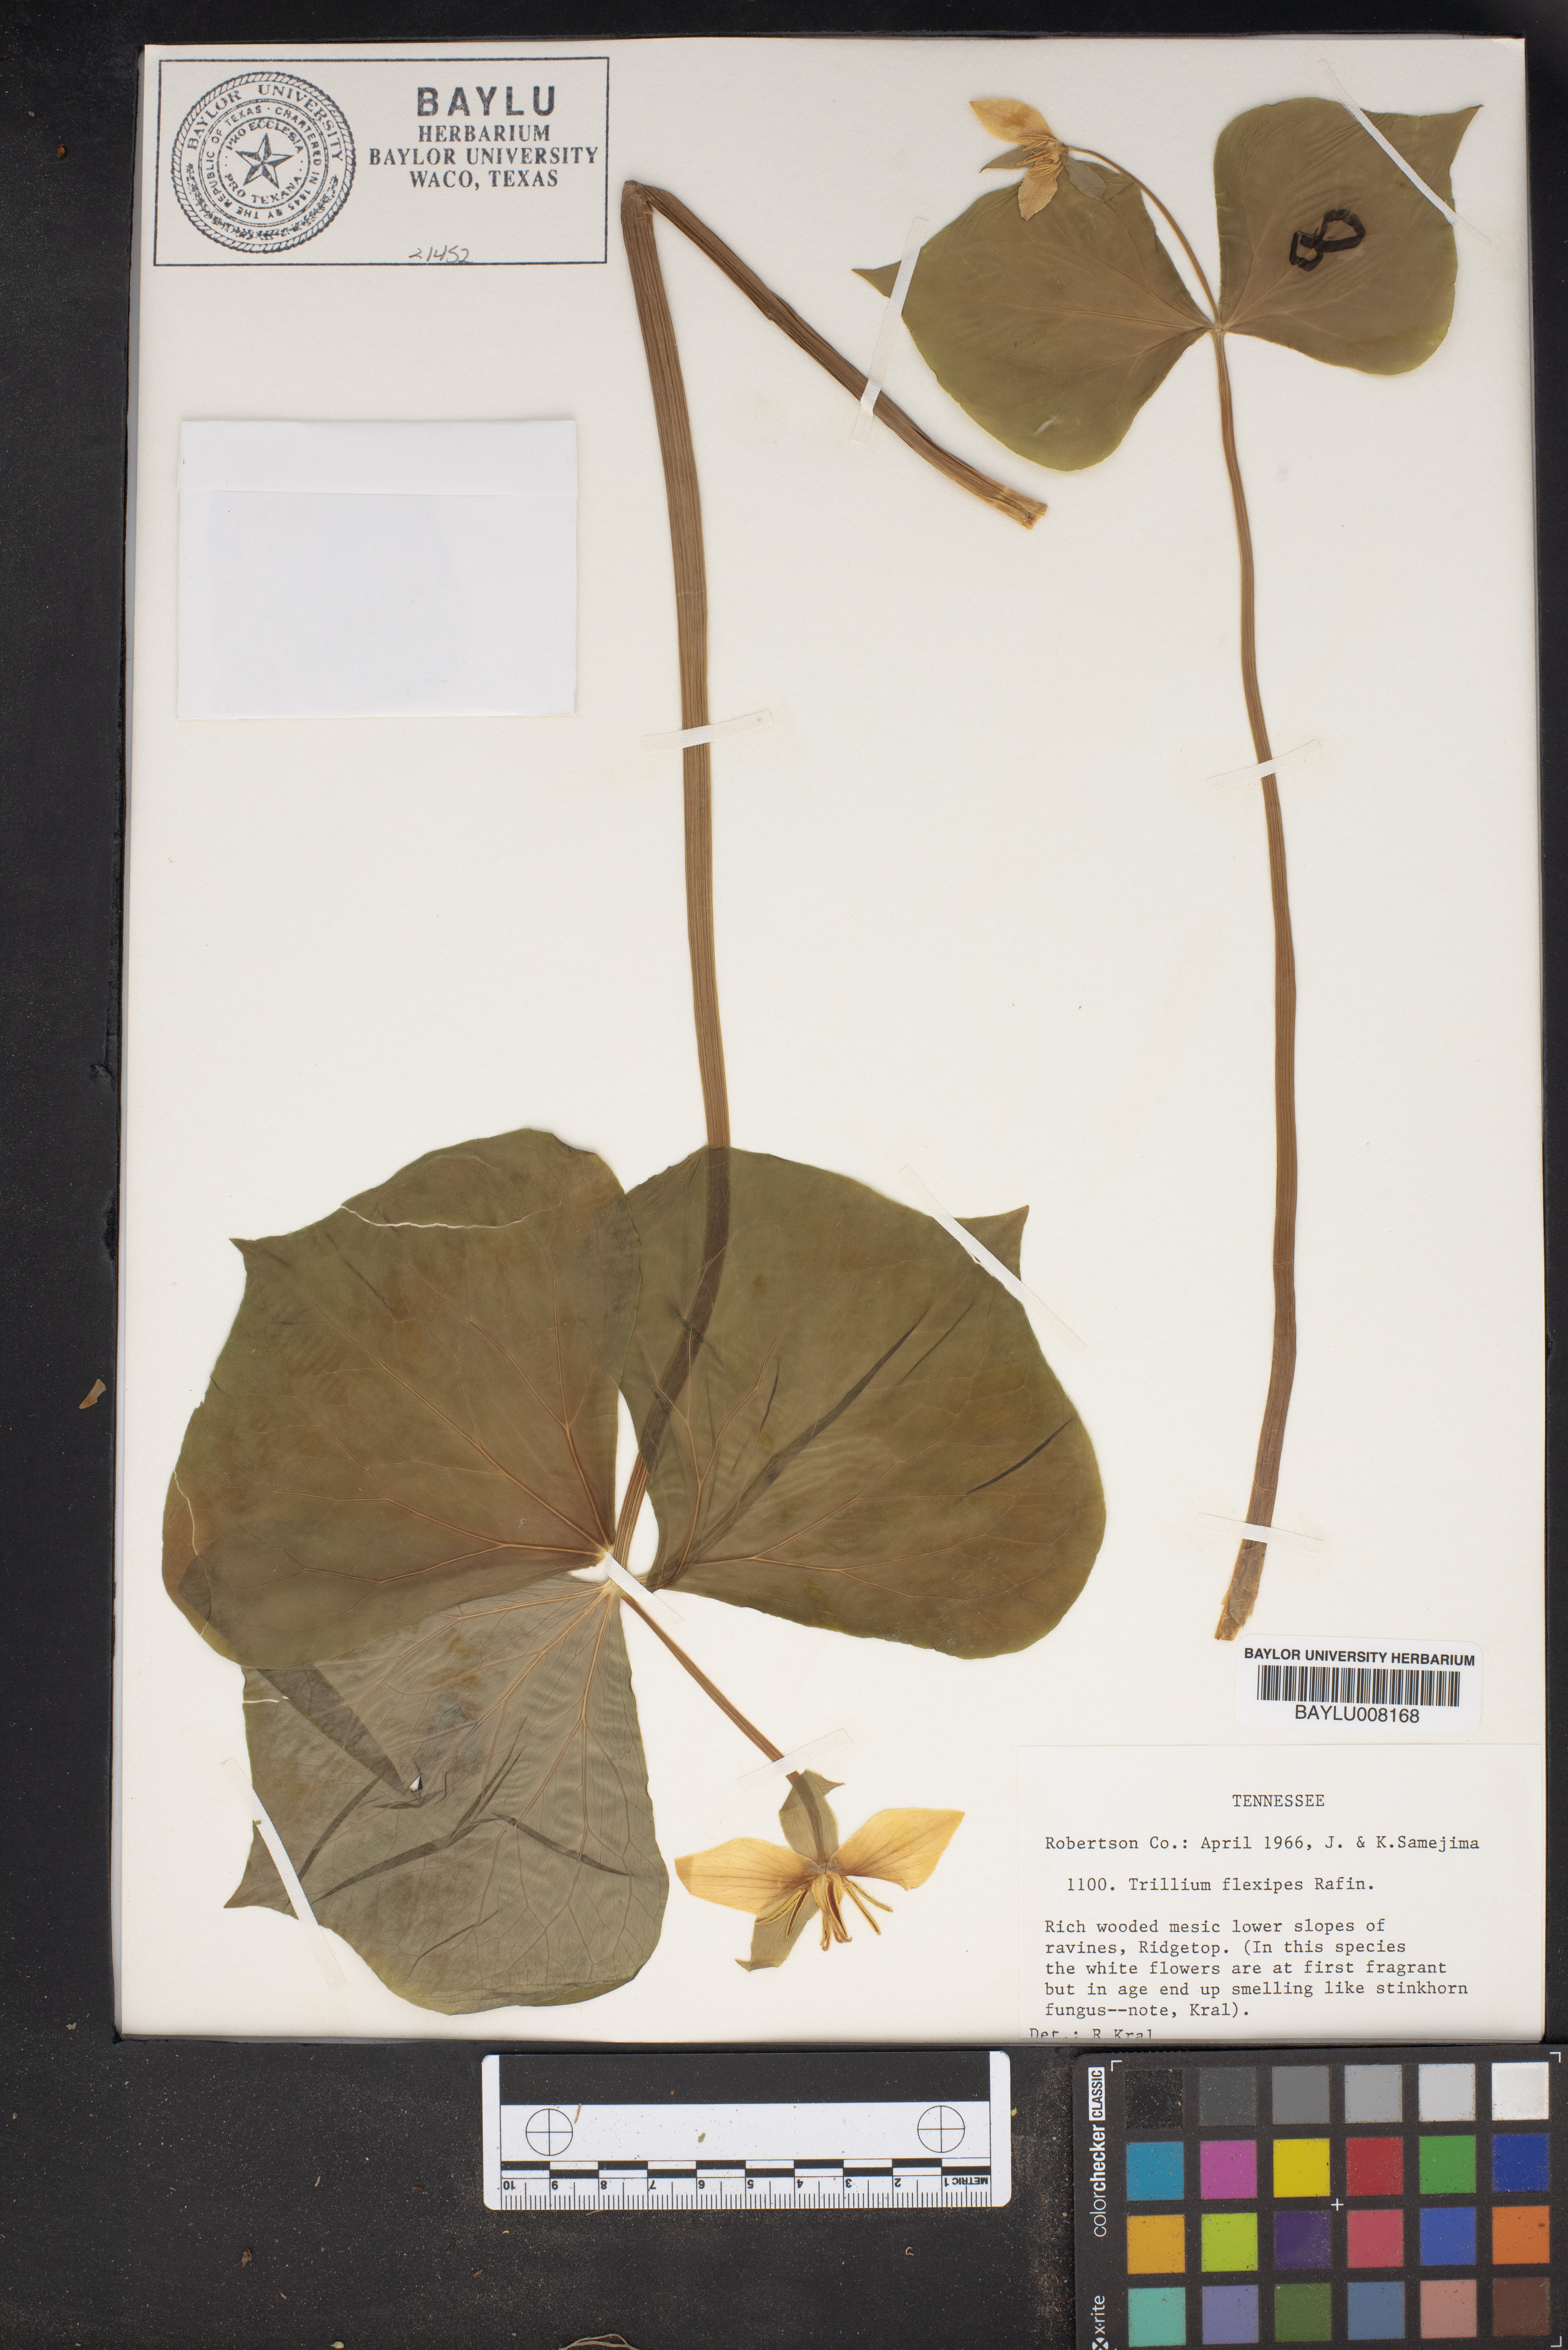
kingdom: Plantae
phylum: Tracheophyta
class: Liliopsida
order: Liliales
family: Melanthiaceae
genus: Trillium
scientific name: Trillium flexipes
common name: Drooping trillium
